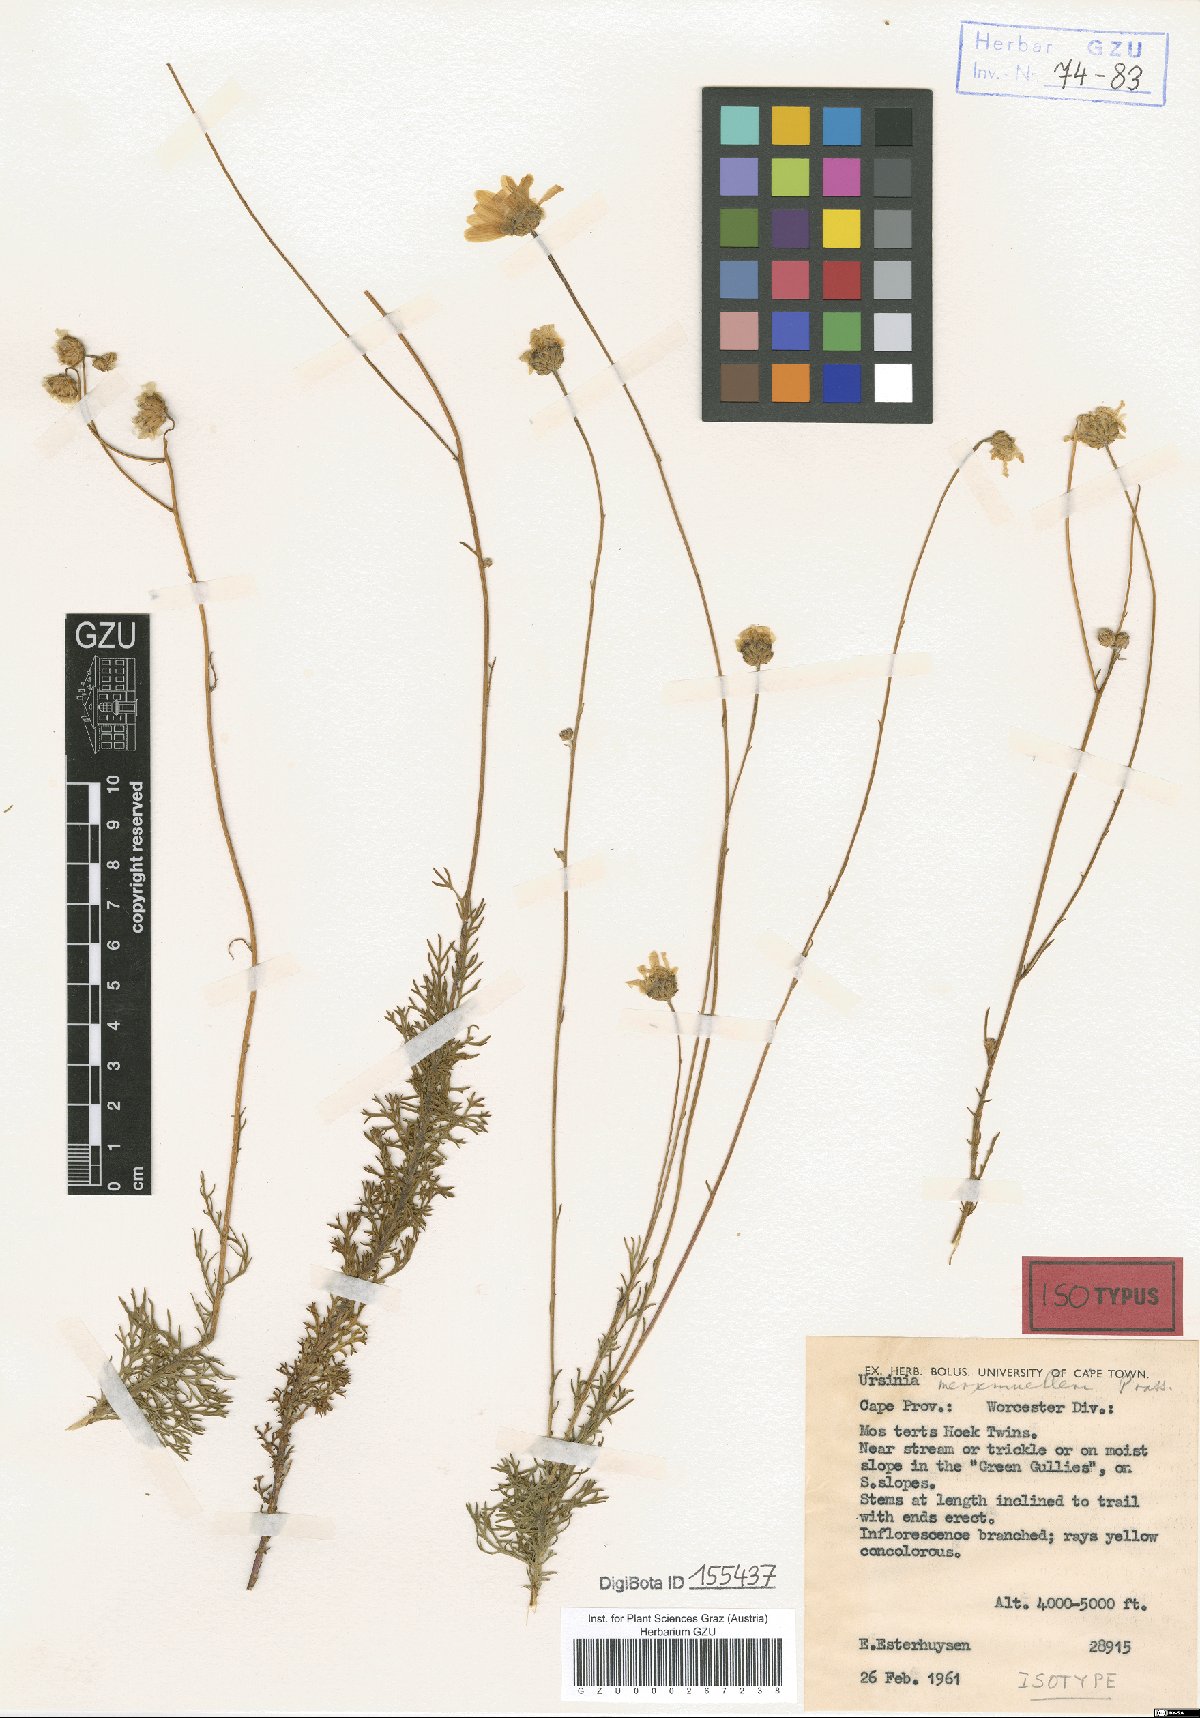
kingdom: Plantae
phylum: Tracheophyta
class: Magnoliopsida
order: Asterales
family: Asteraceae
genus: Ursinia
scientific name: Ursinia merxmuelleri
